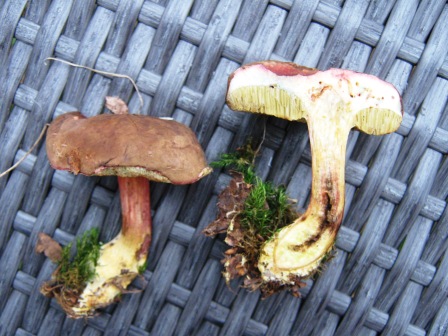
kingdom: Fungi
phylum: Basidiomycota
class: Agaricomycetes
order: Boletales
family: Boletaceae
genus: Xerocomellus
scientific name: Xerocomellus pruinatus
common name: dugget rørhat
